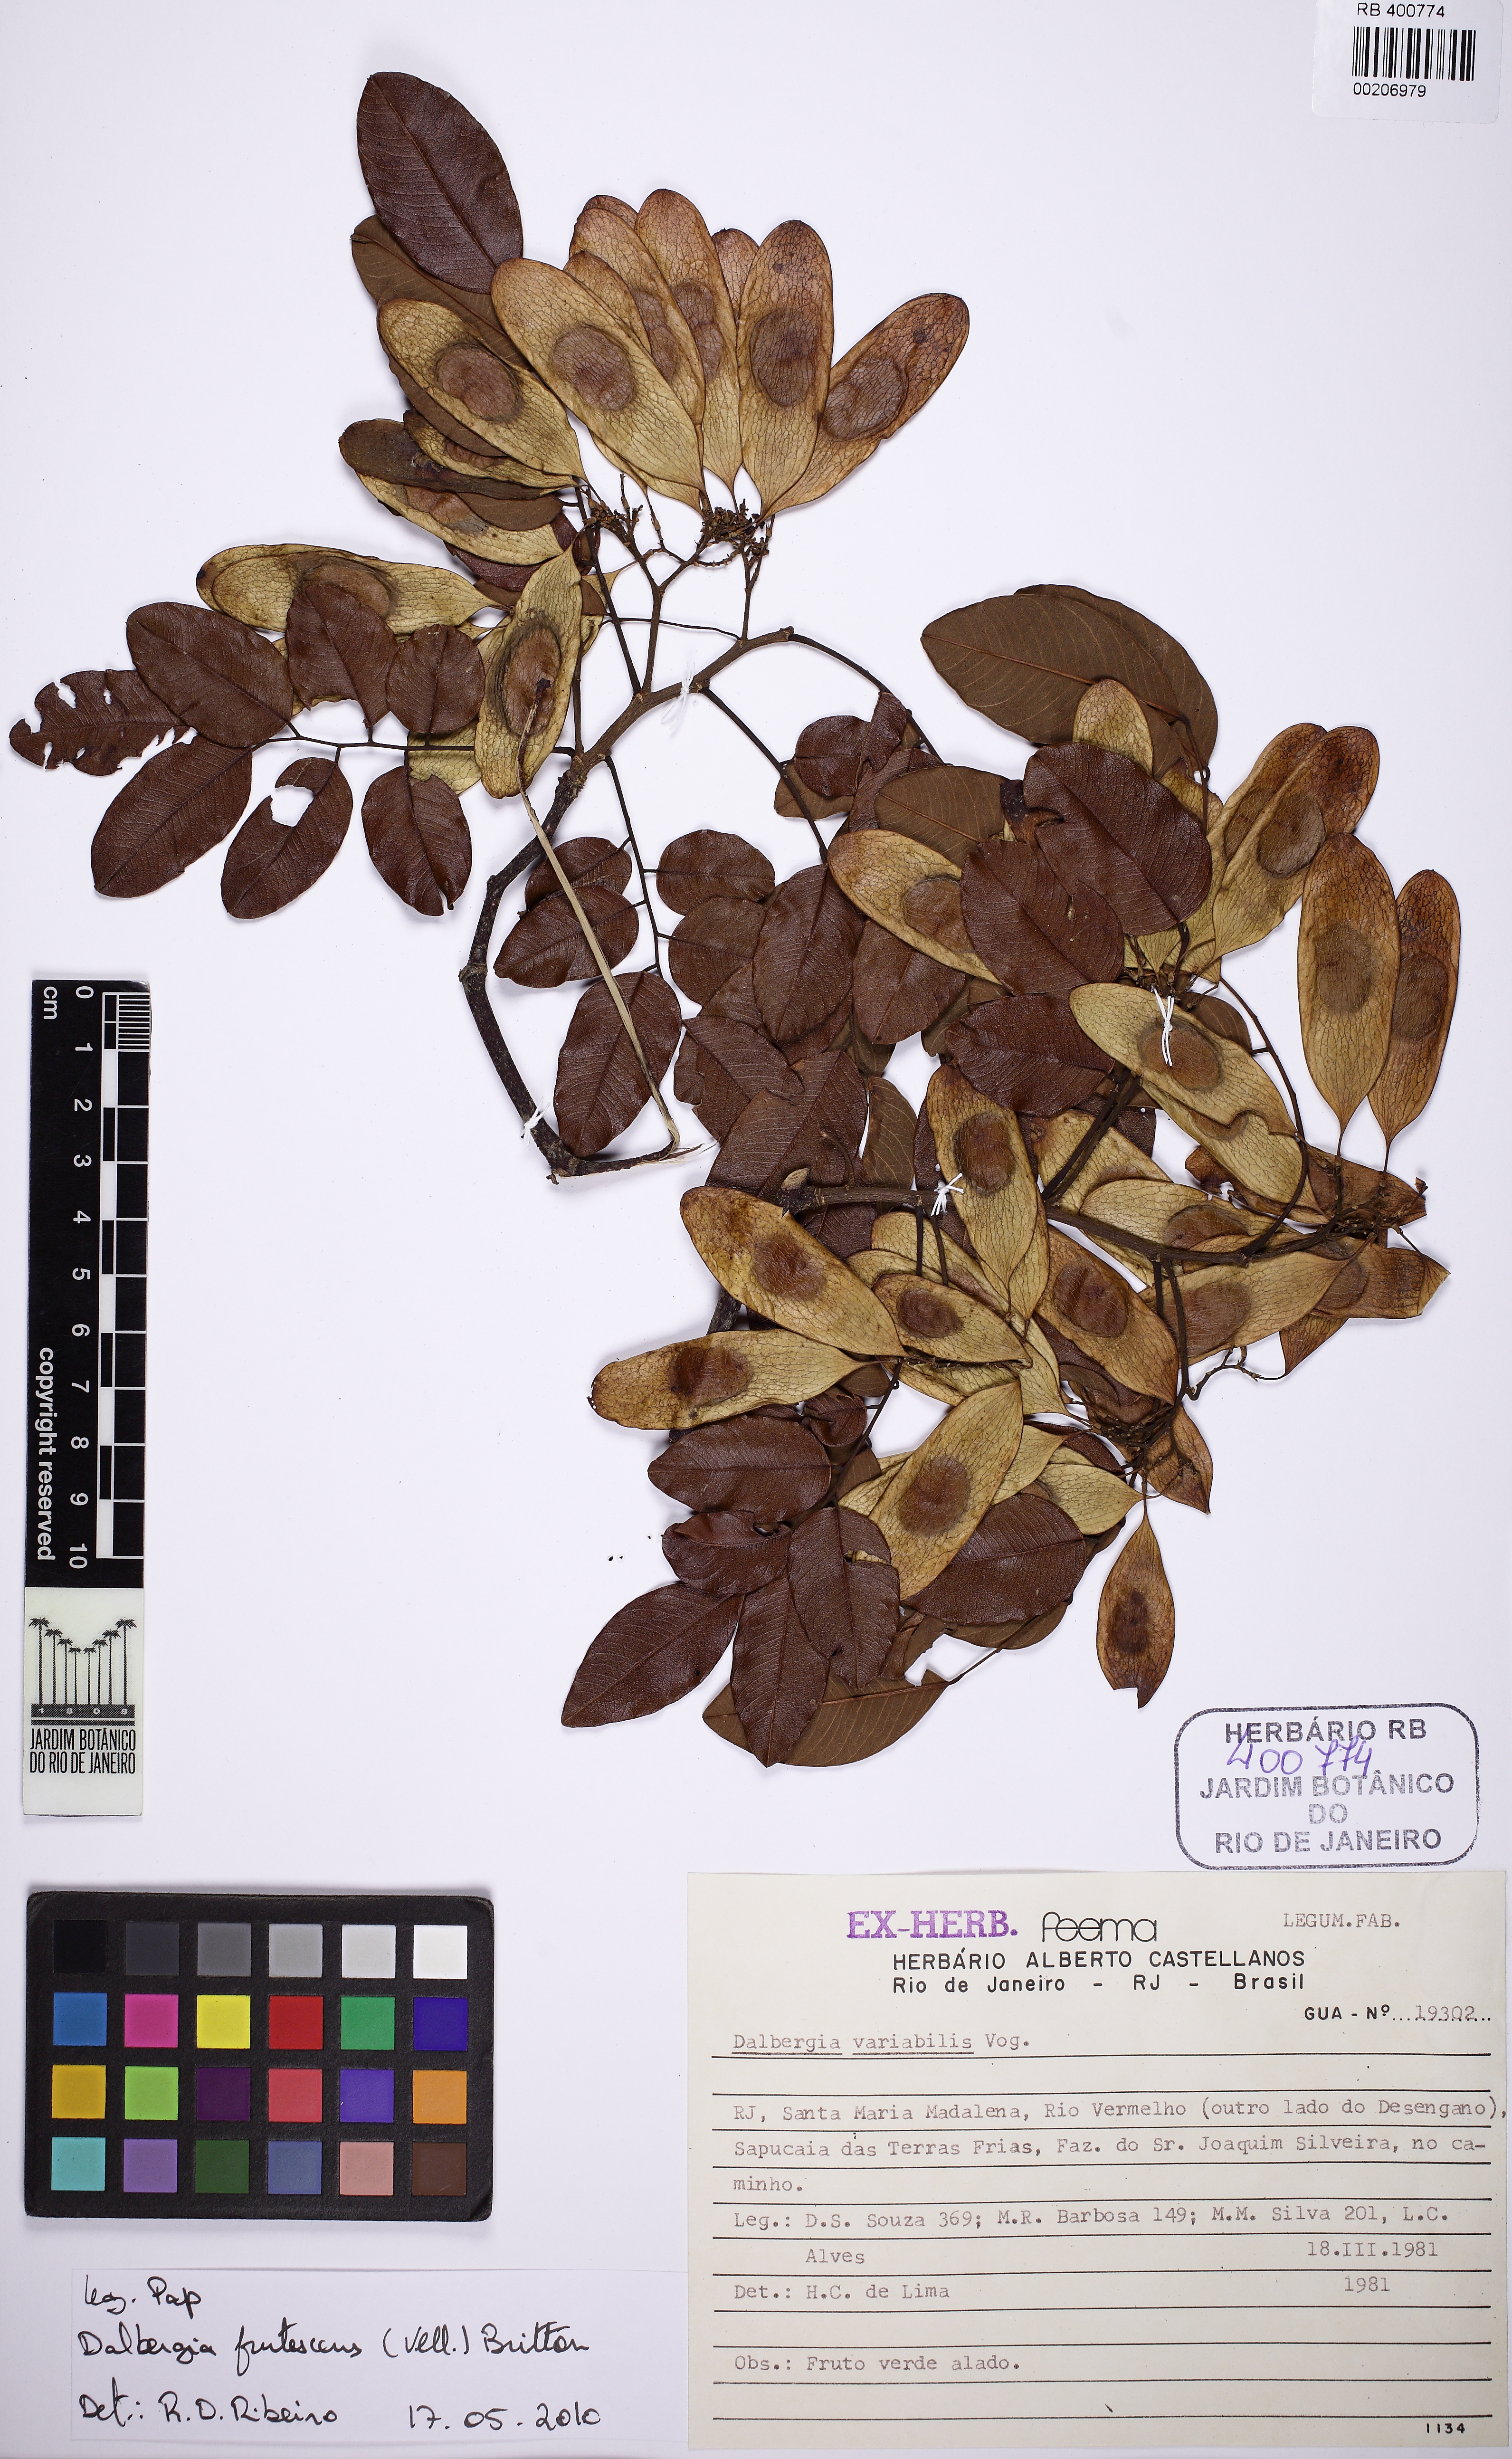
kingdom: Plantae
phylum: Tracheophyta
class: Magnoliopsida
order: Fabales
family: Fabaceae
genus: Dalbergia
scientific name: Dalbergia frutescens
